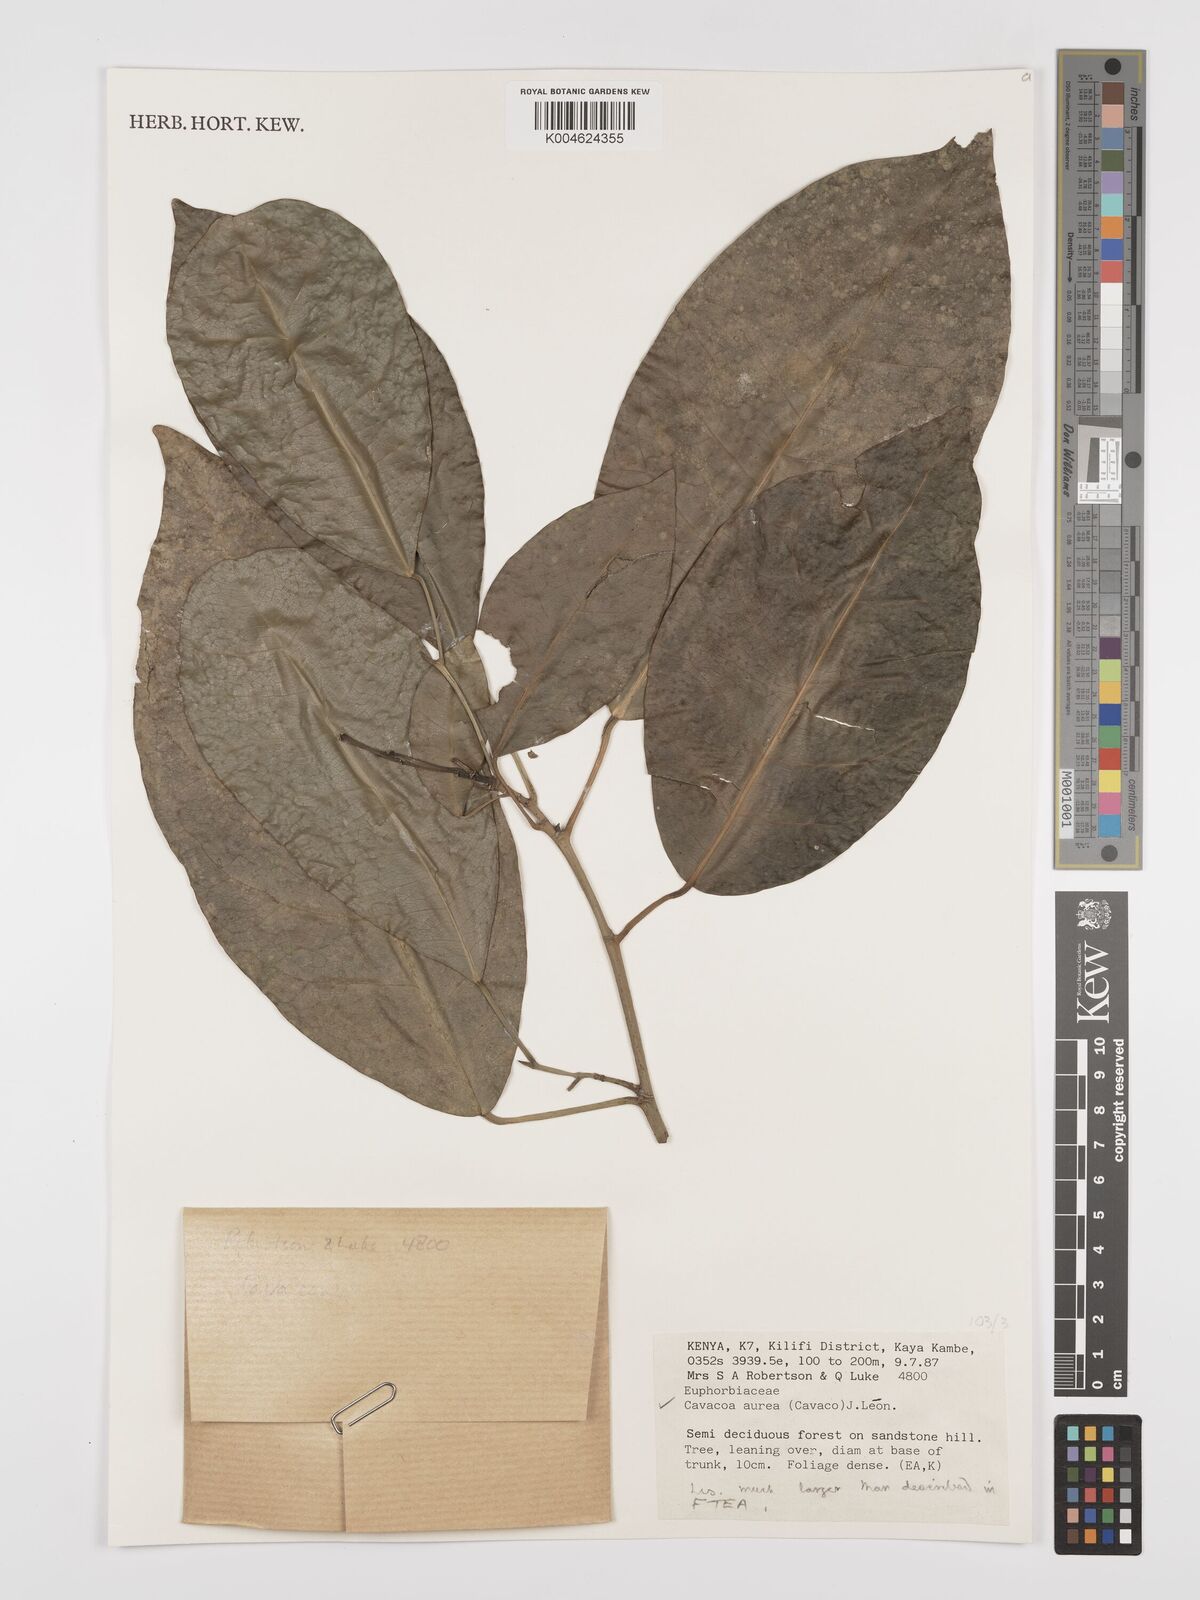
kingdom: Plantae
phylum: Tracheophyta
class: Magnoliopsida
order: Malpighiales
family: Euphorbiaceae
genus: Cavacoa
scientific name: Cavacoa aurea
